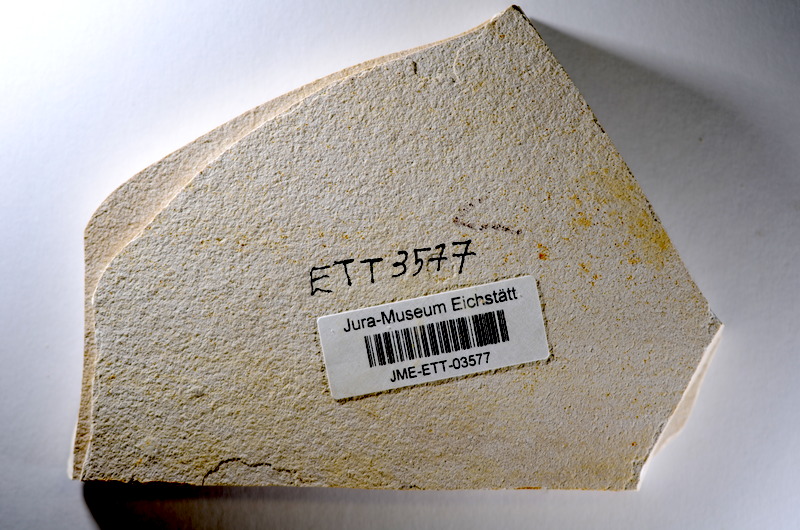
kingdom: Animalia
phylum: Chordata
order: Salmoniformes
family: Orthogonikleithridae
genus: Orthogonikleithrus
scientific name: Orthogonikleithrus hoelli
